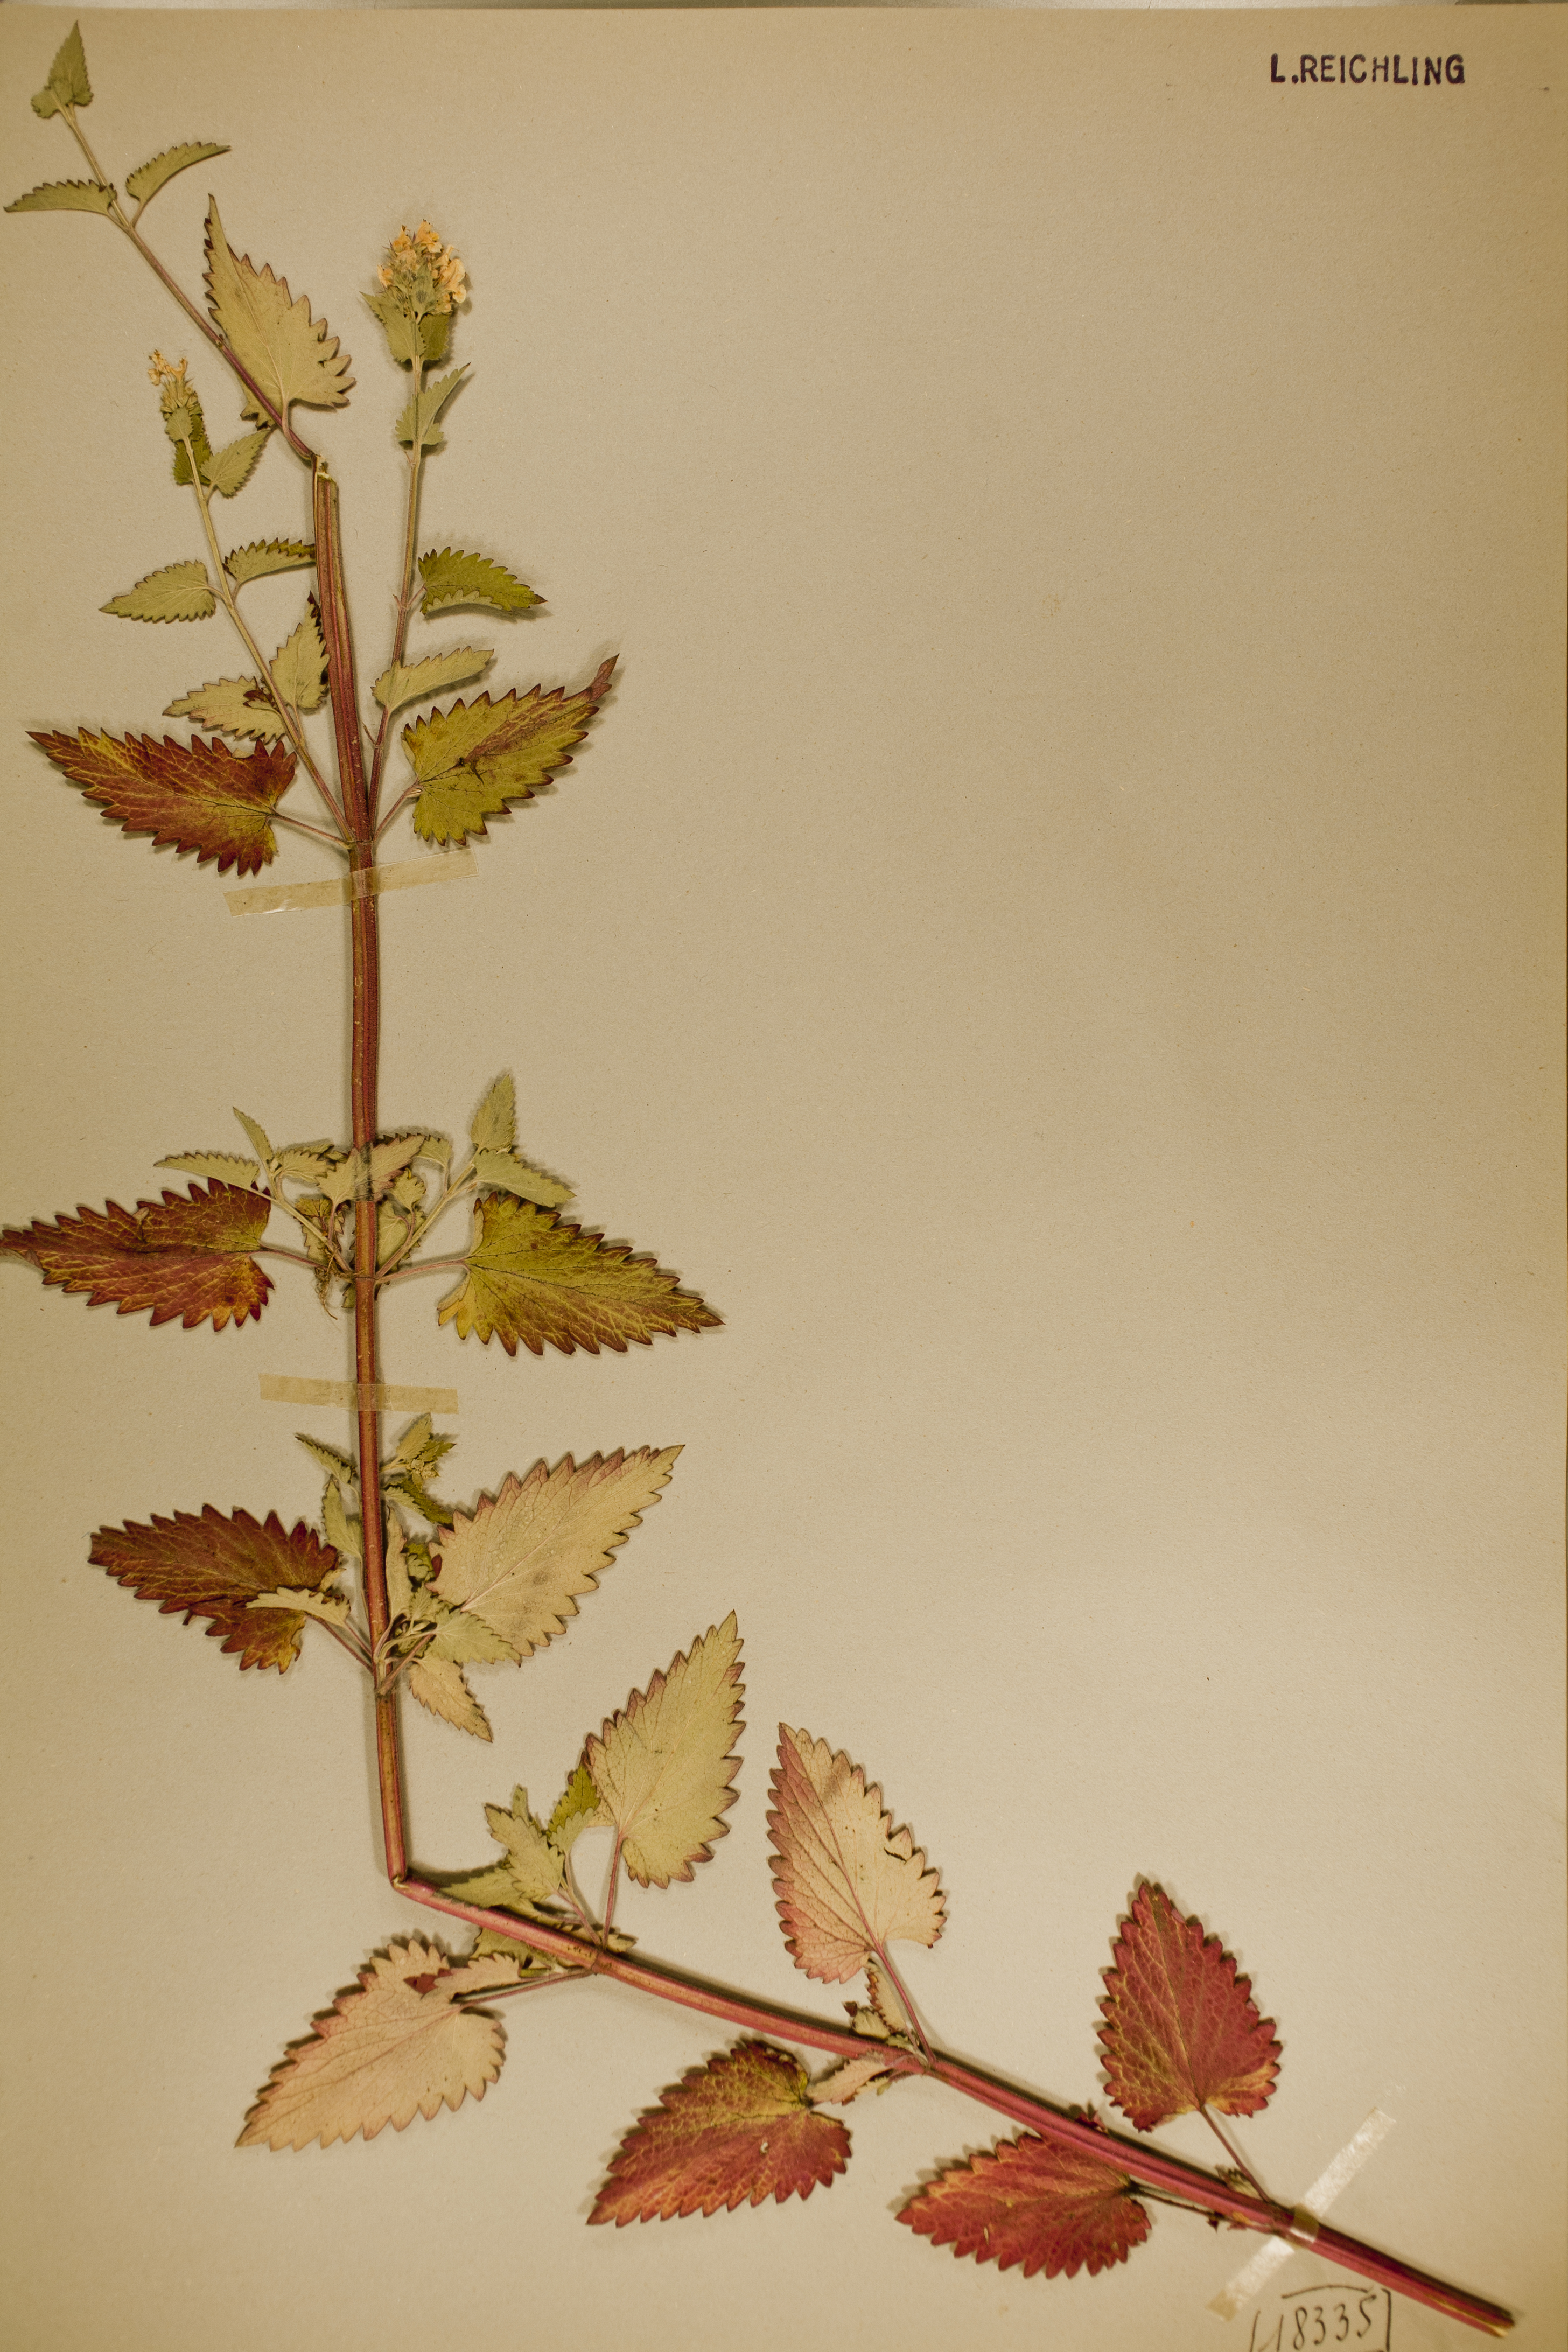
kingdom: Plantae
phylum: Tracheophyta
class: Magnoliopsida
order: Lamiales
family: Lamiaceae
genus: Nepeta
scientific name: Nepeta cataria
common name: Catnip
